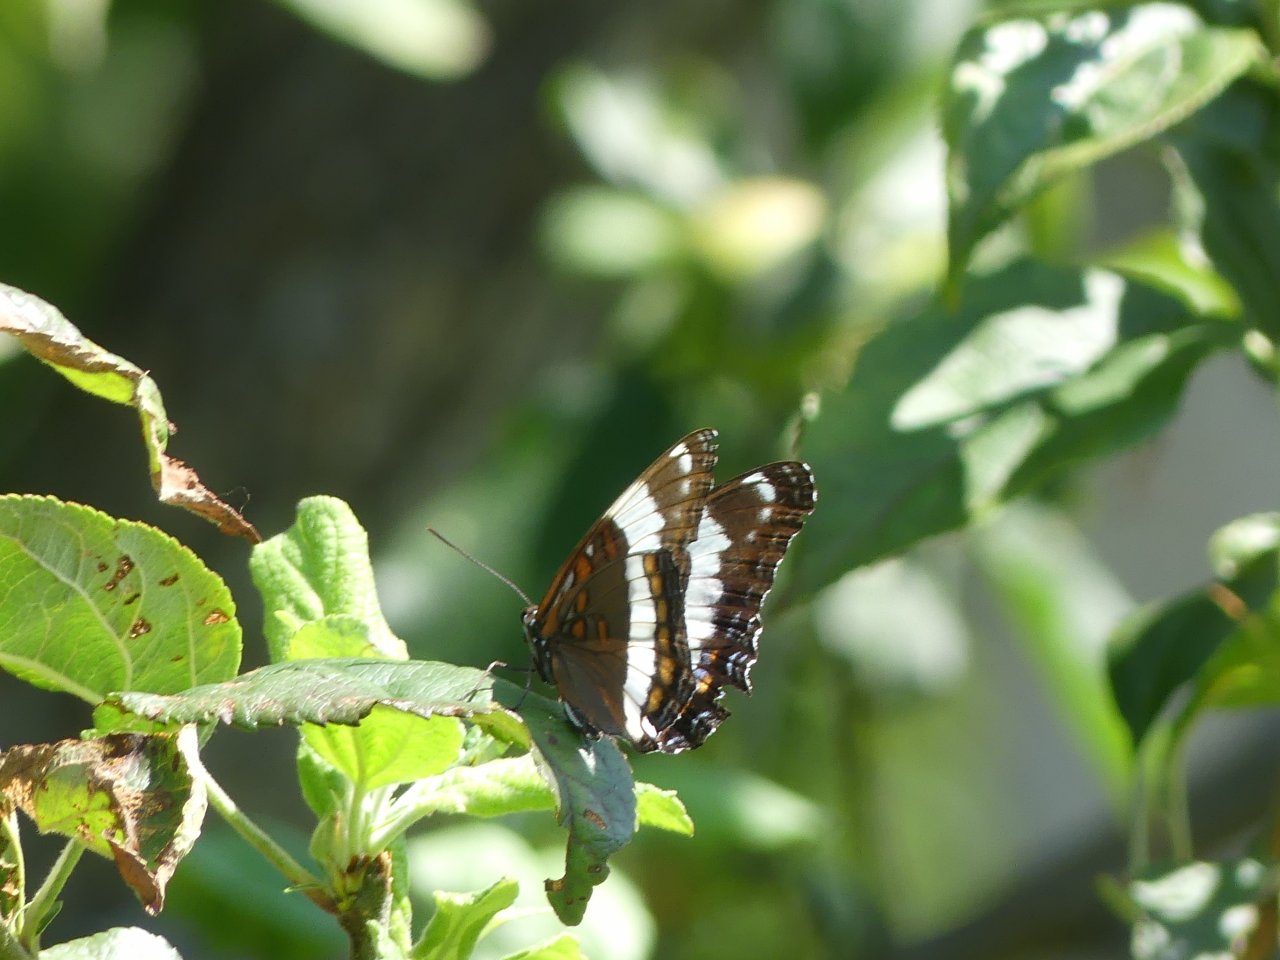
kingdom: Animalia
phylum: Arthropoda
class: Insecta
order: Lepidoptera
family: Nymphalidae
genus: Limenitis
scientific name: Limenitis arthemis
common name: Red-spotted Admiral
